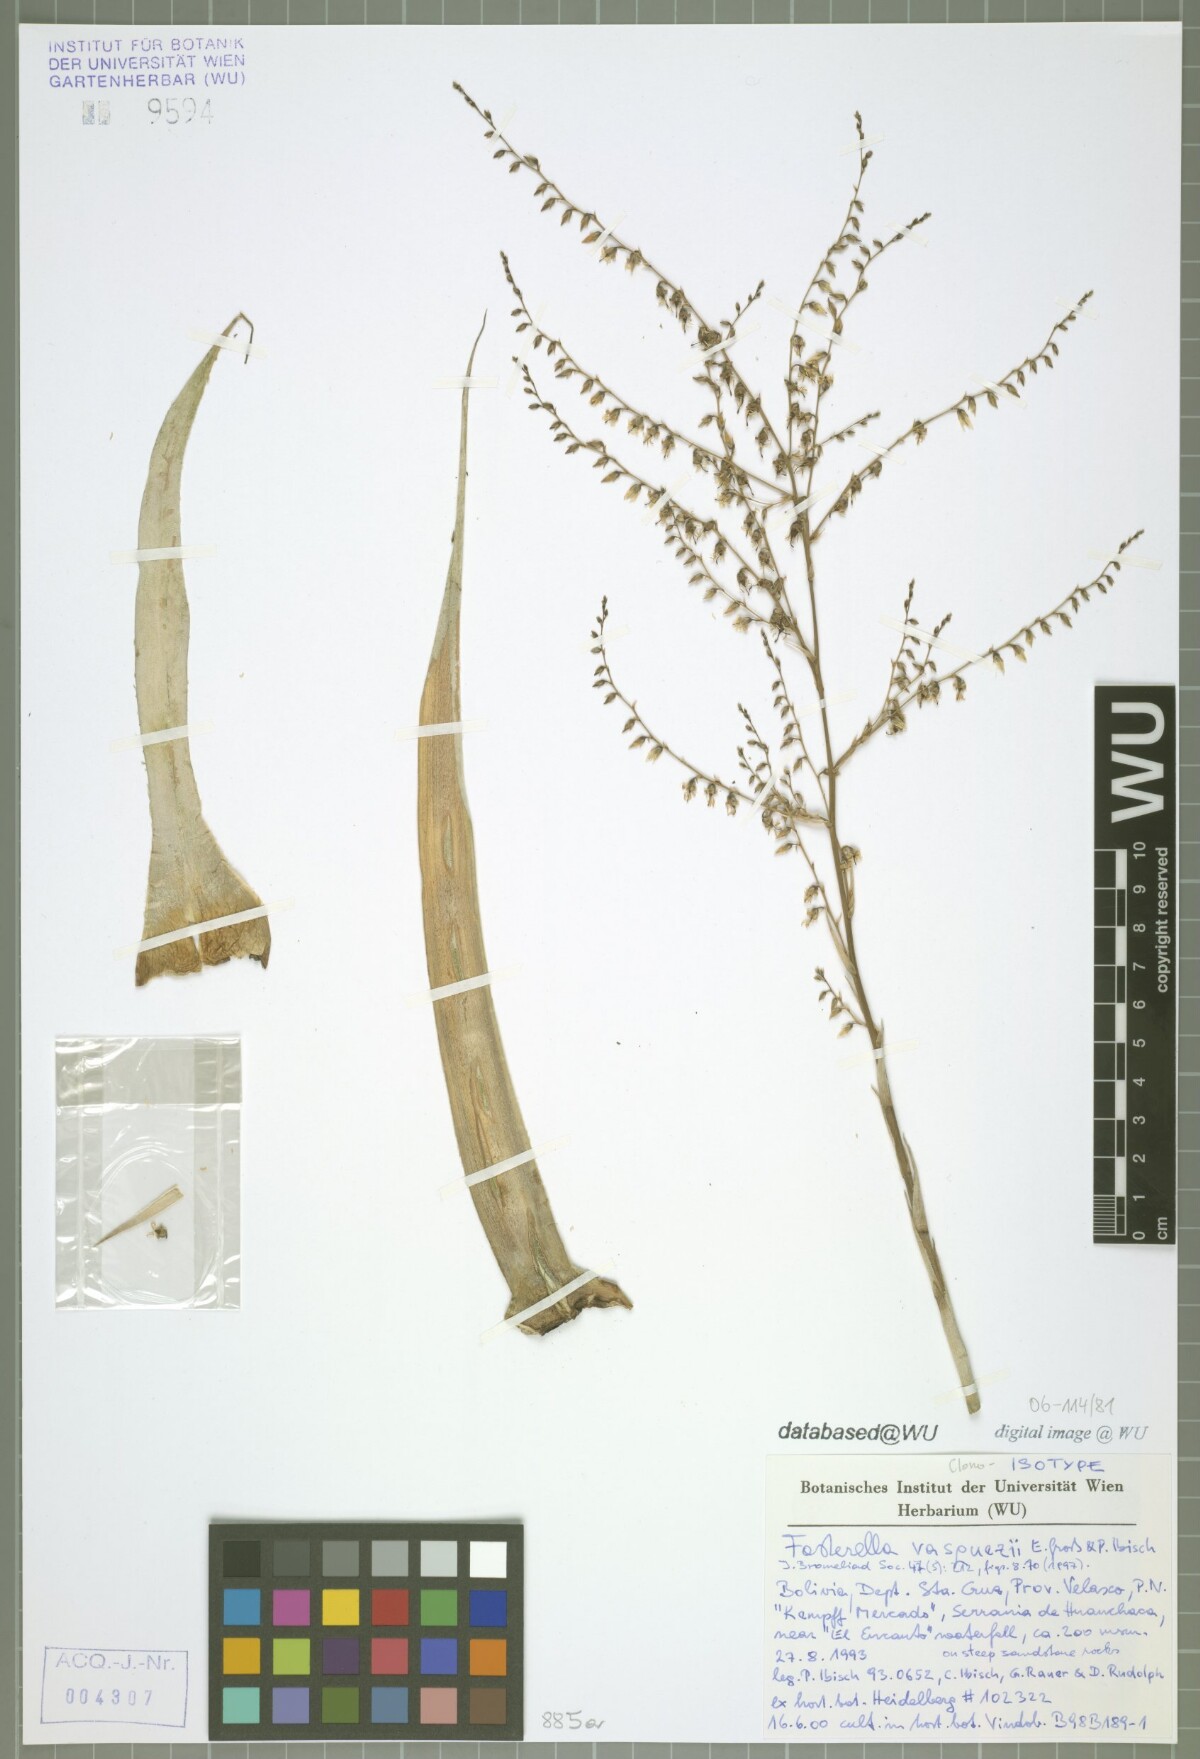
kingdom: Plantae
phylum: Tracheophyta
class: Liliopsida
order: Poales
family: Bromeliaceae
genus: Fosterella
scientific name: Fosterella vasquezii
